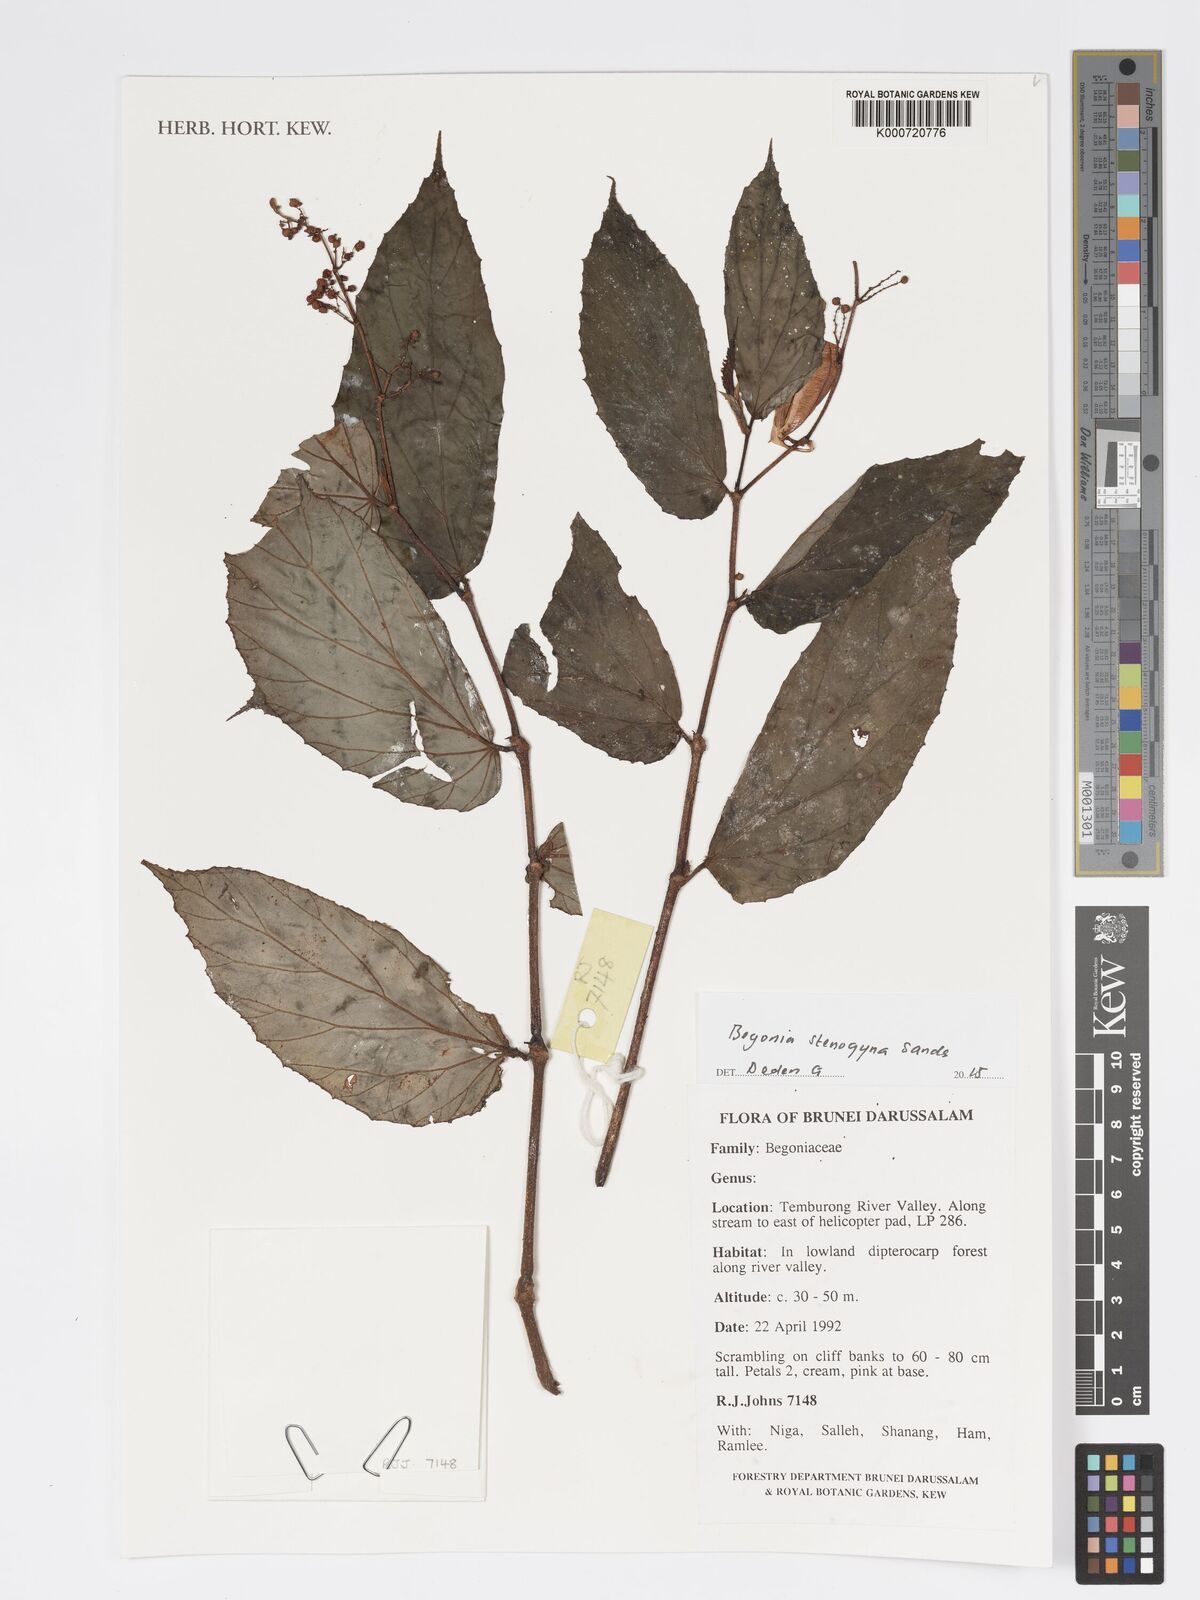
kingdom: Plantae
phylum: Tracheophyta
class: Magnoliopsida
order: Cucurbitales
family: Begoniaceae
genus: Begonia
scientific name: Begonia stenogyna
